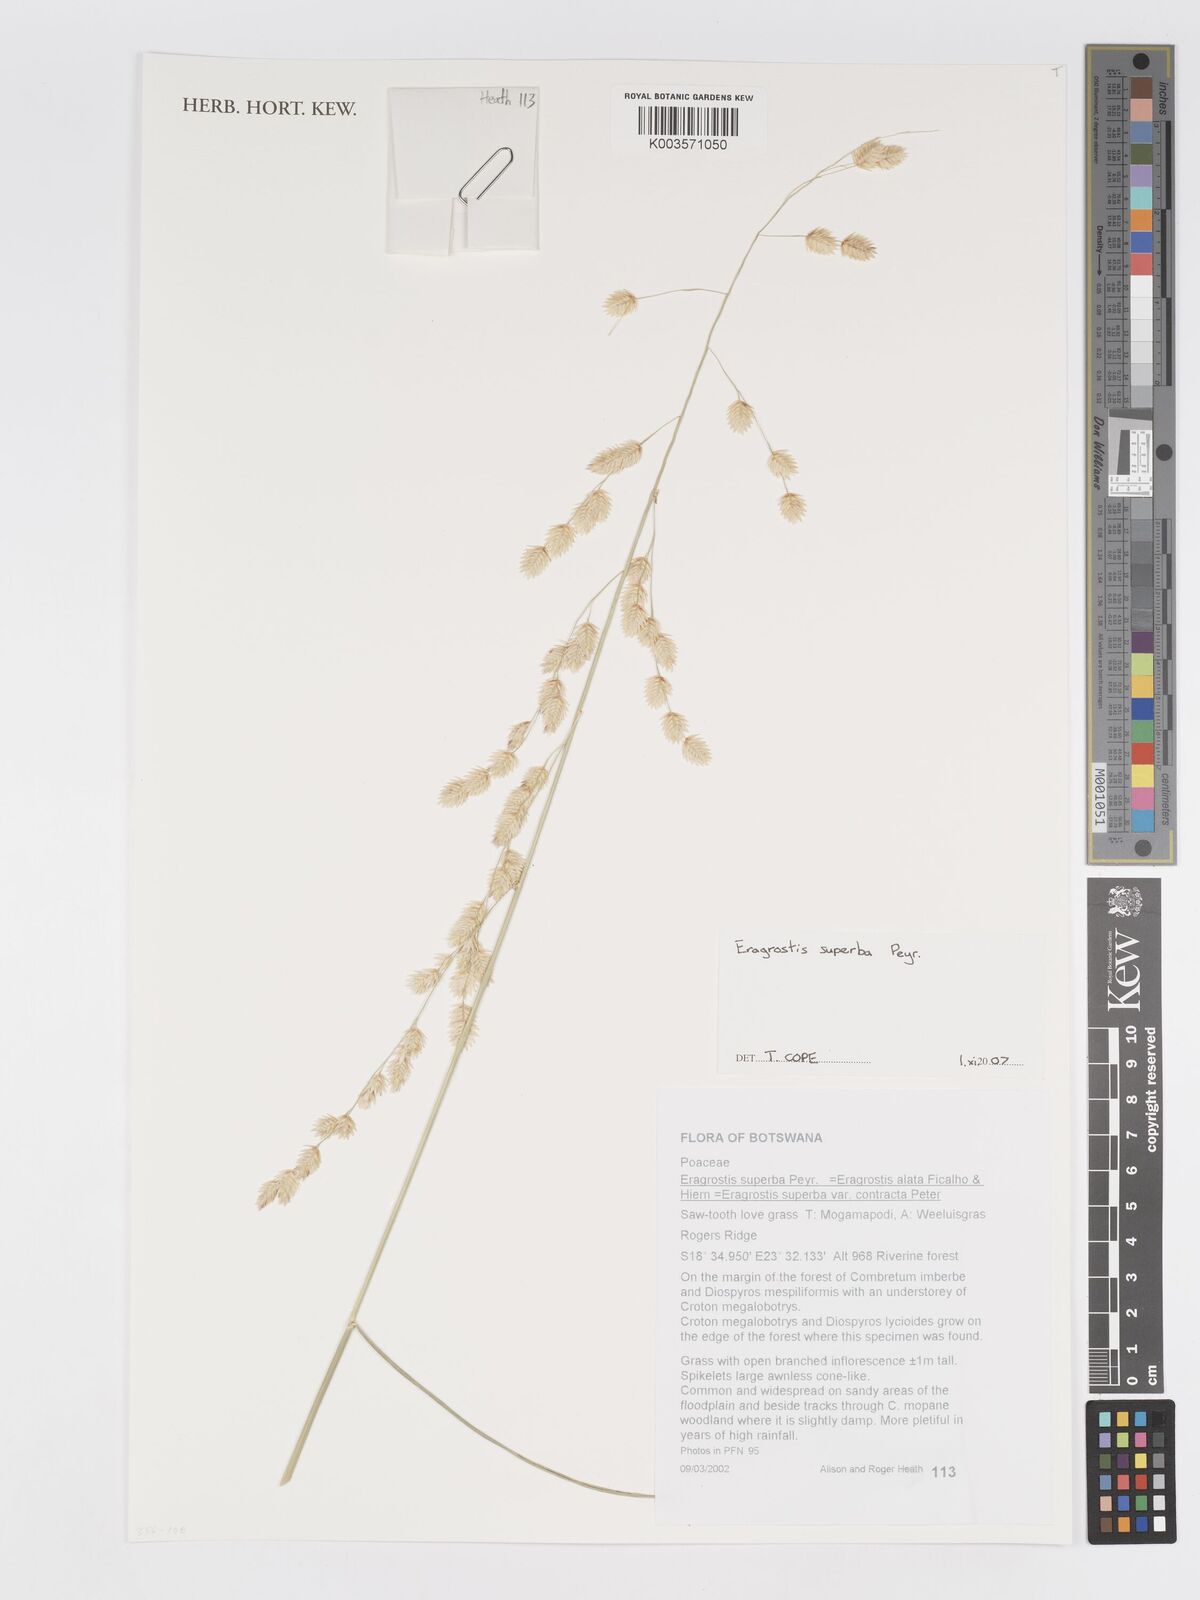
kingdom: Plantae
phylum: Tracheophyta
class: Liliopsida
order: Poales
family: Poaceae
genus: Eragrostis
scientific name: Eragrostis superba
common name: Wilman lovegrass
